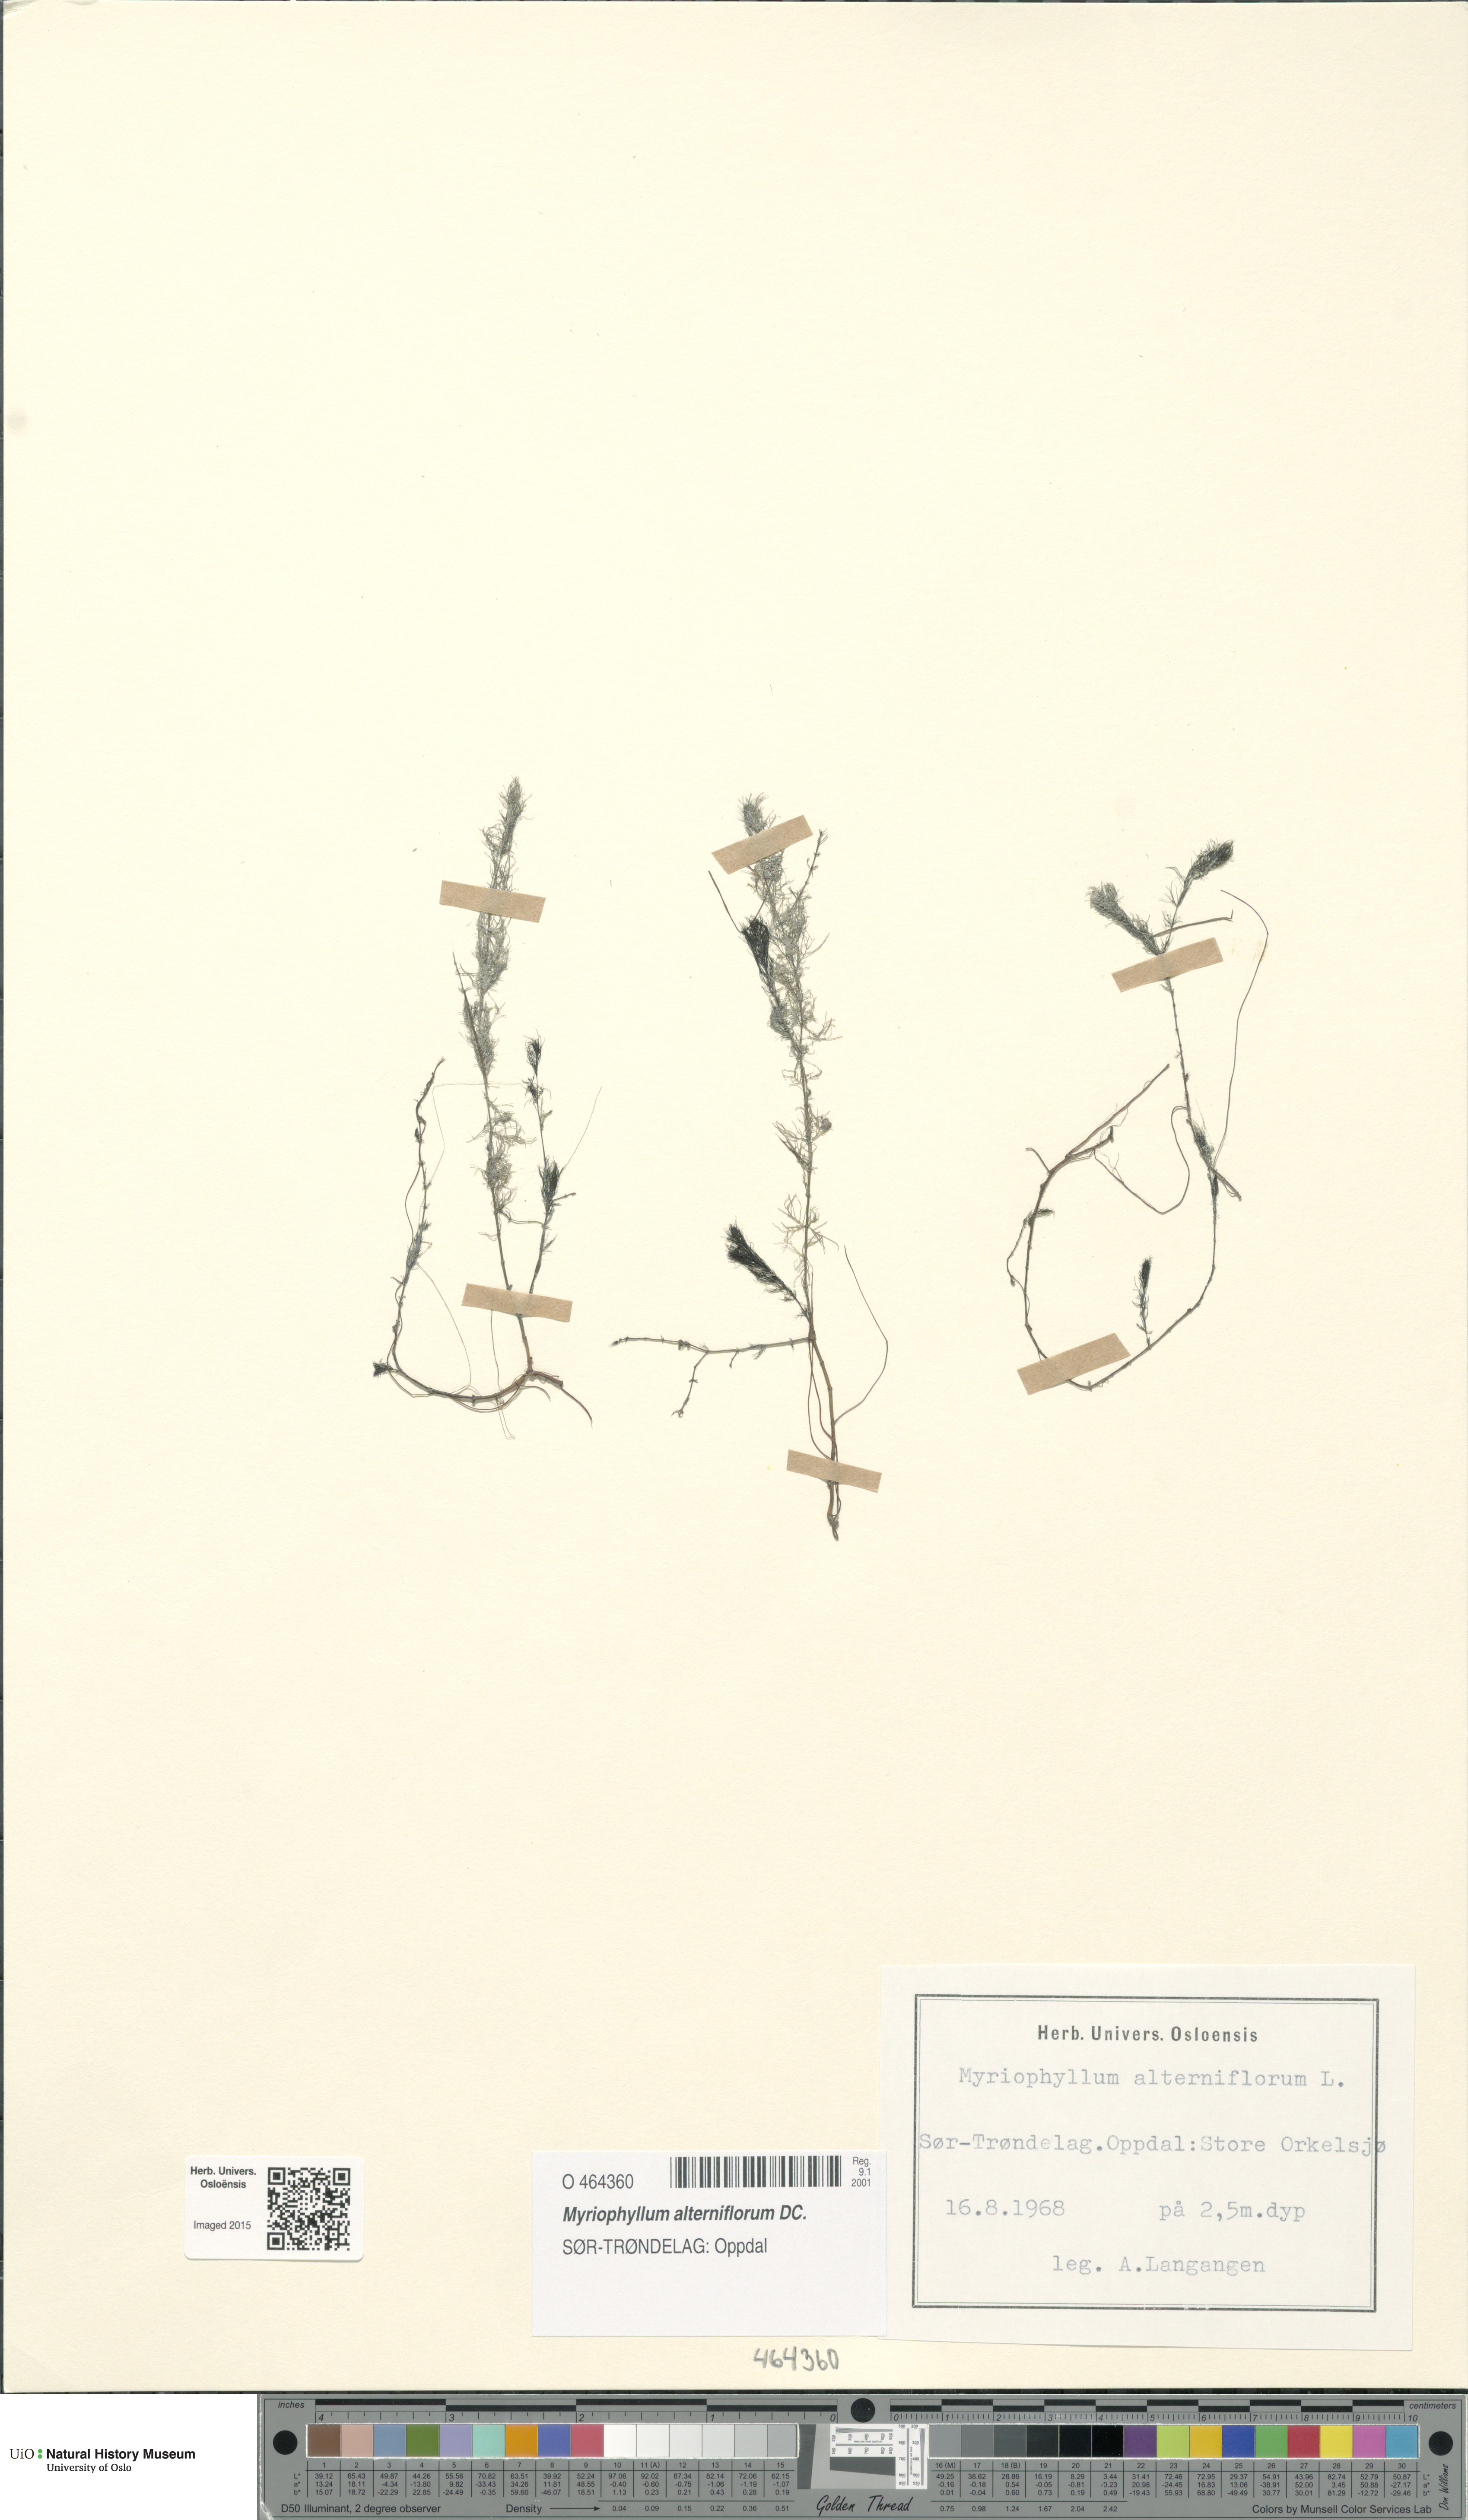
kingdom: Plantae
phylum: Tracheophyta
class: Magnoliopsida
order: Saxifragales
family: Haloragaceae
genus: Myriophyllum
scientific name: Myriophyllum alterniflorum
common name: Alternate water-milfoil
